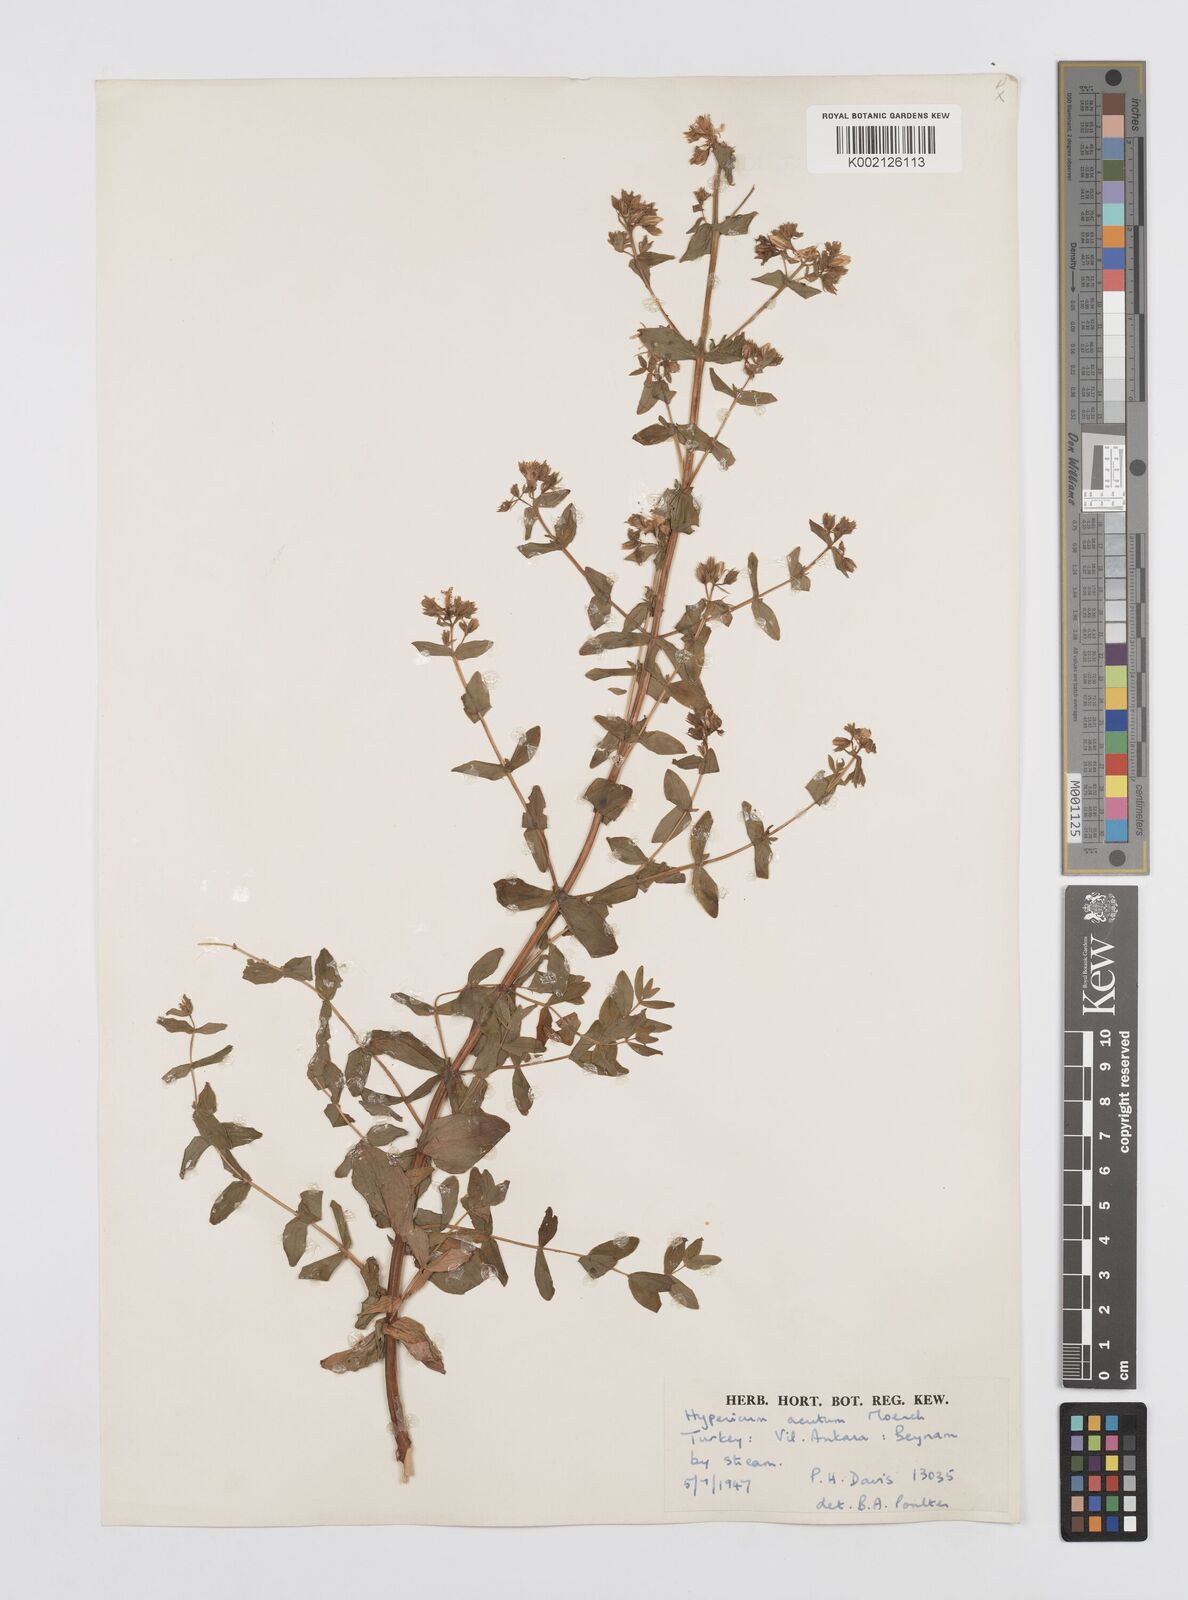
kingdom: Plantae
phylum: Tracheophyta
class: Magnoliopsida
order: Malpighiales
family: Hypericaceae
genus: Hypericum
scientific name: Hypericum tetrapterum
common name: Square-stalked st. john's-wort
